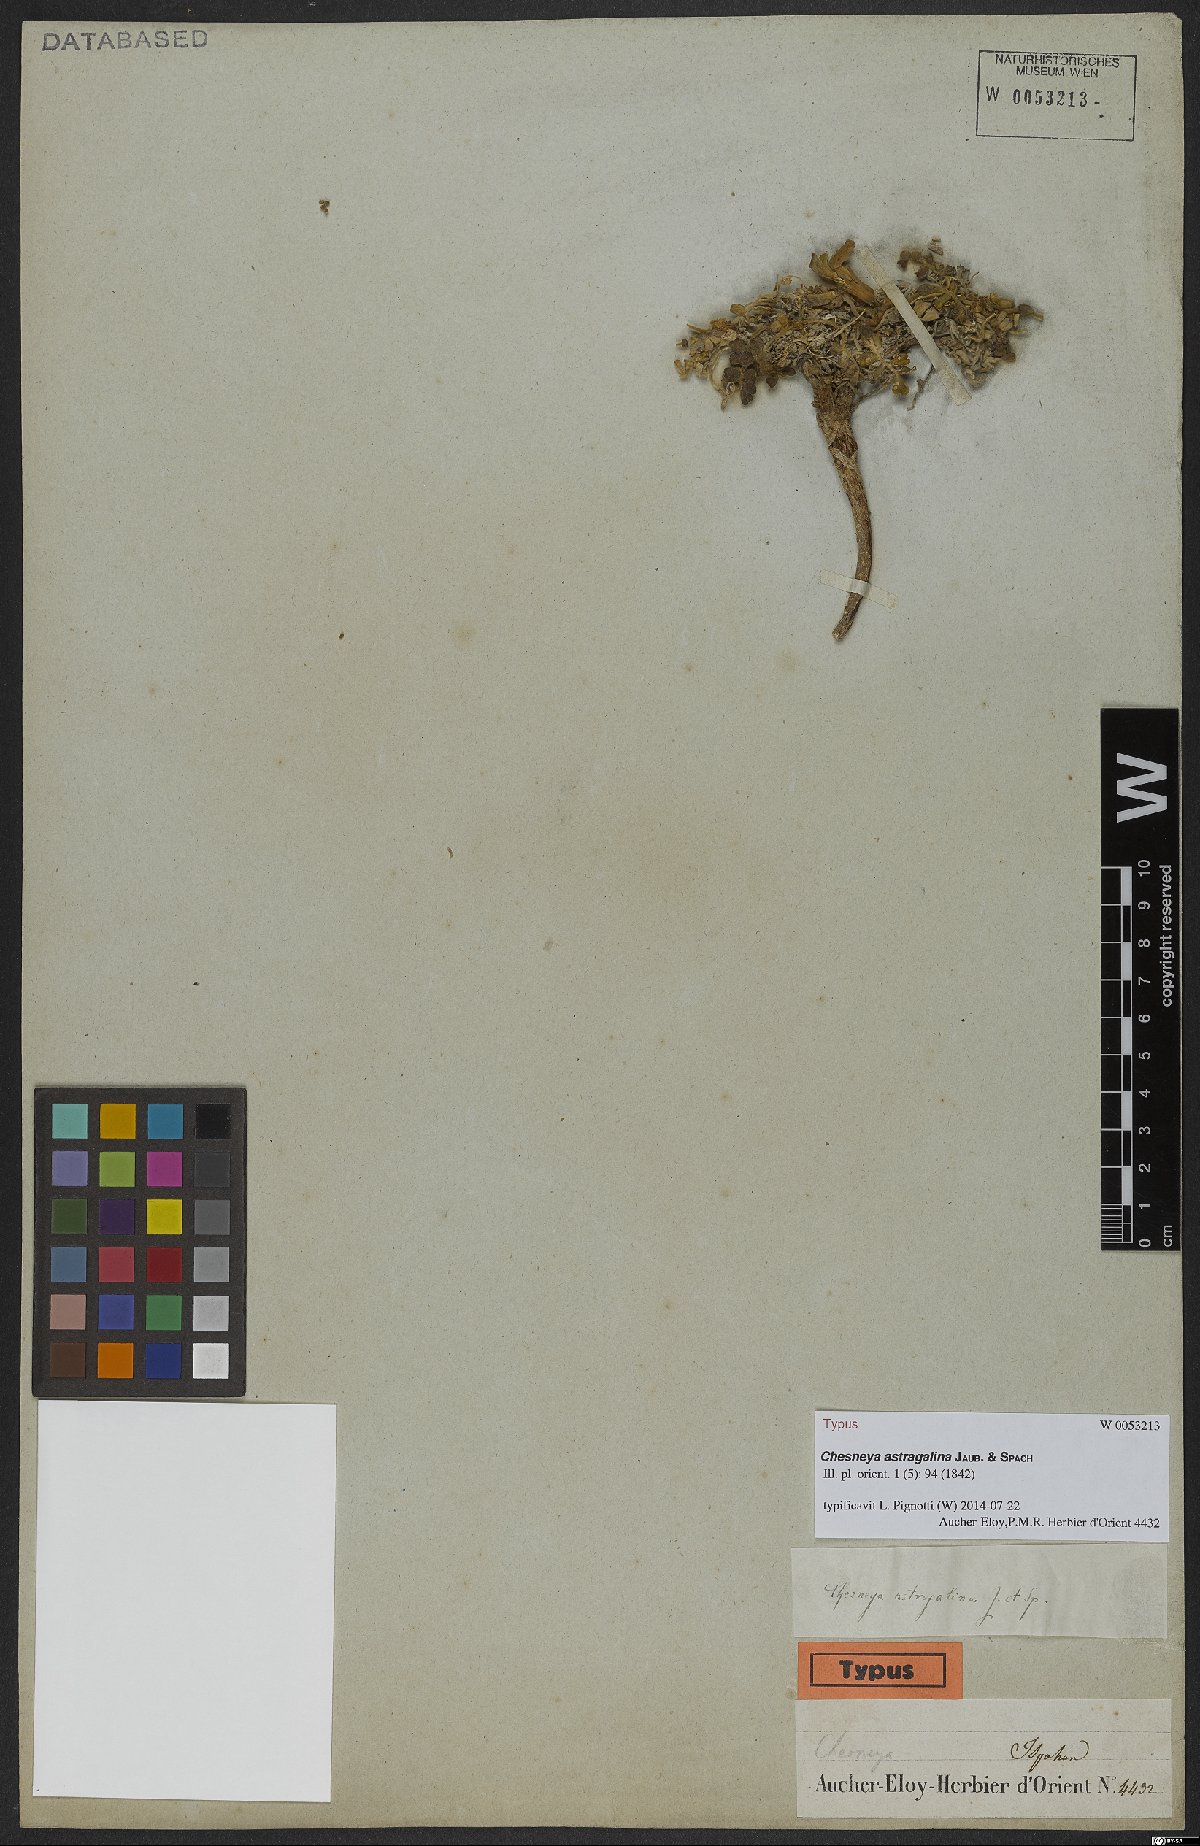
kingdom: Plantae
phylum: Tracheophyta
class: Magnoliopsida
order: Fabales
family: Fabaceae
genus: Chesneya
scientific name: Chesneya astragalina
